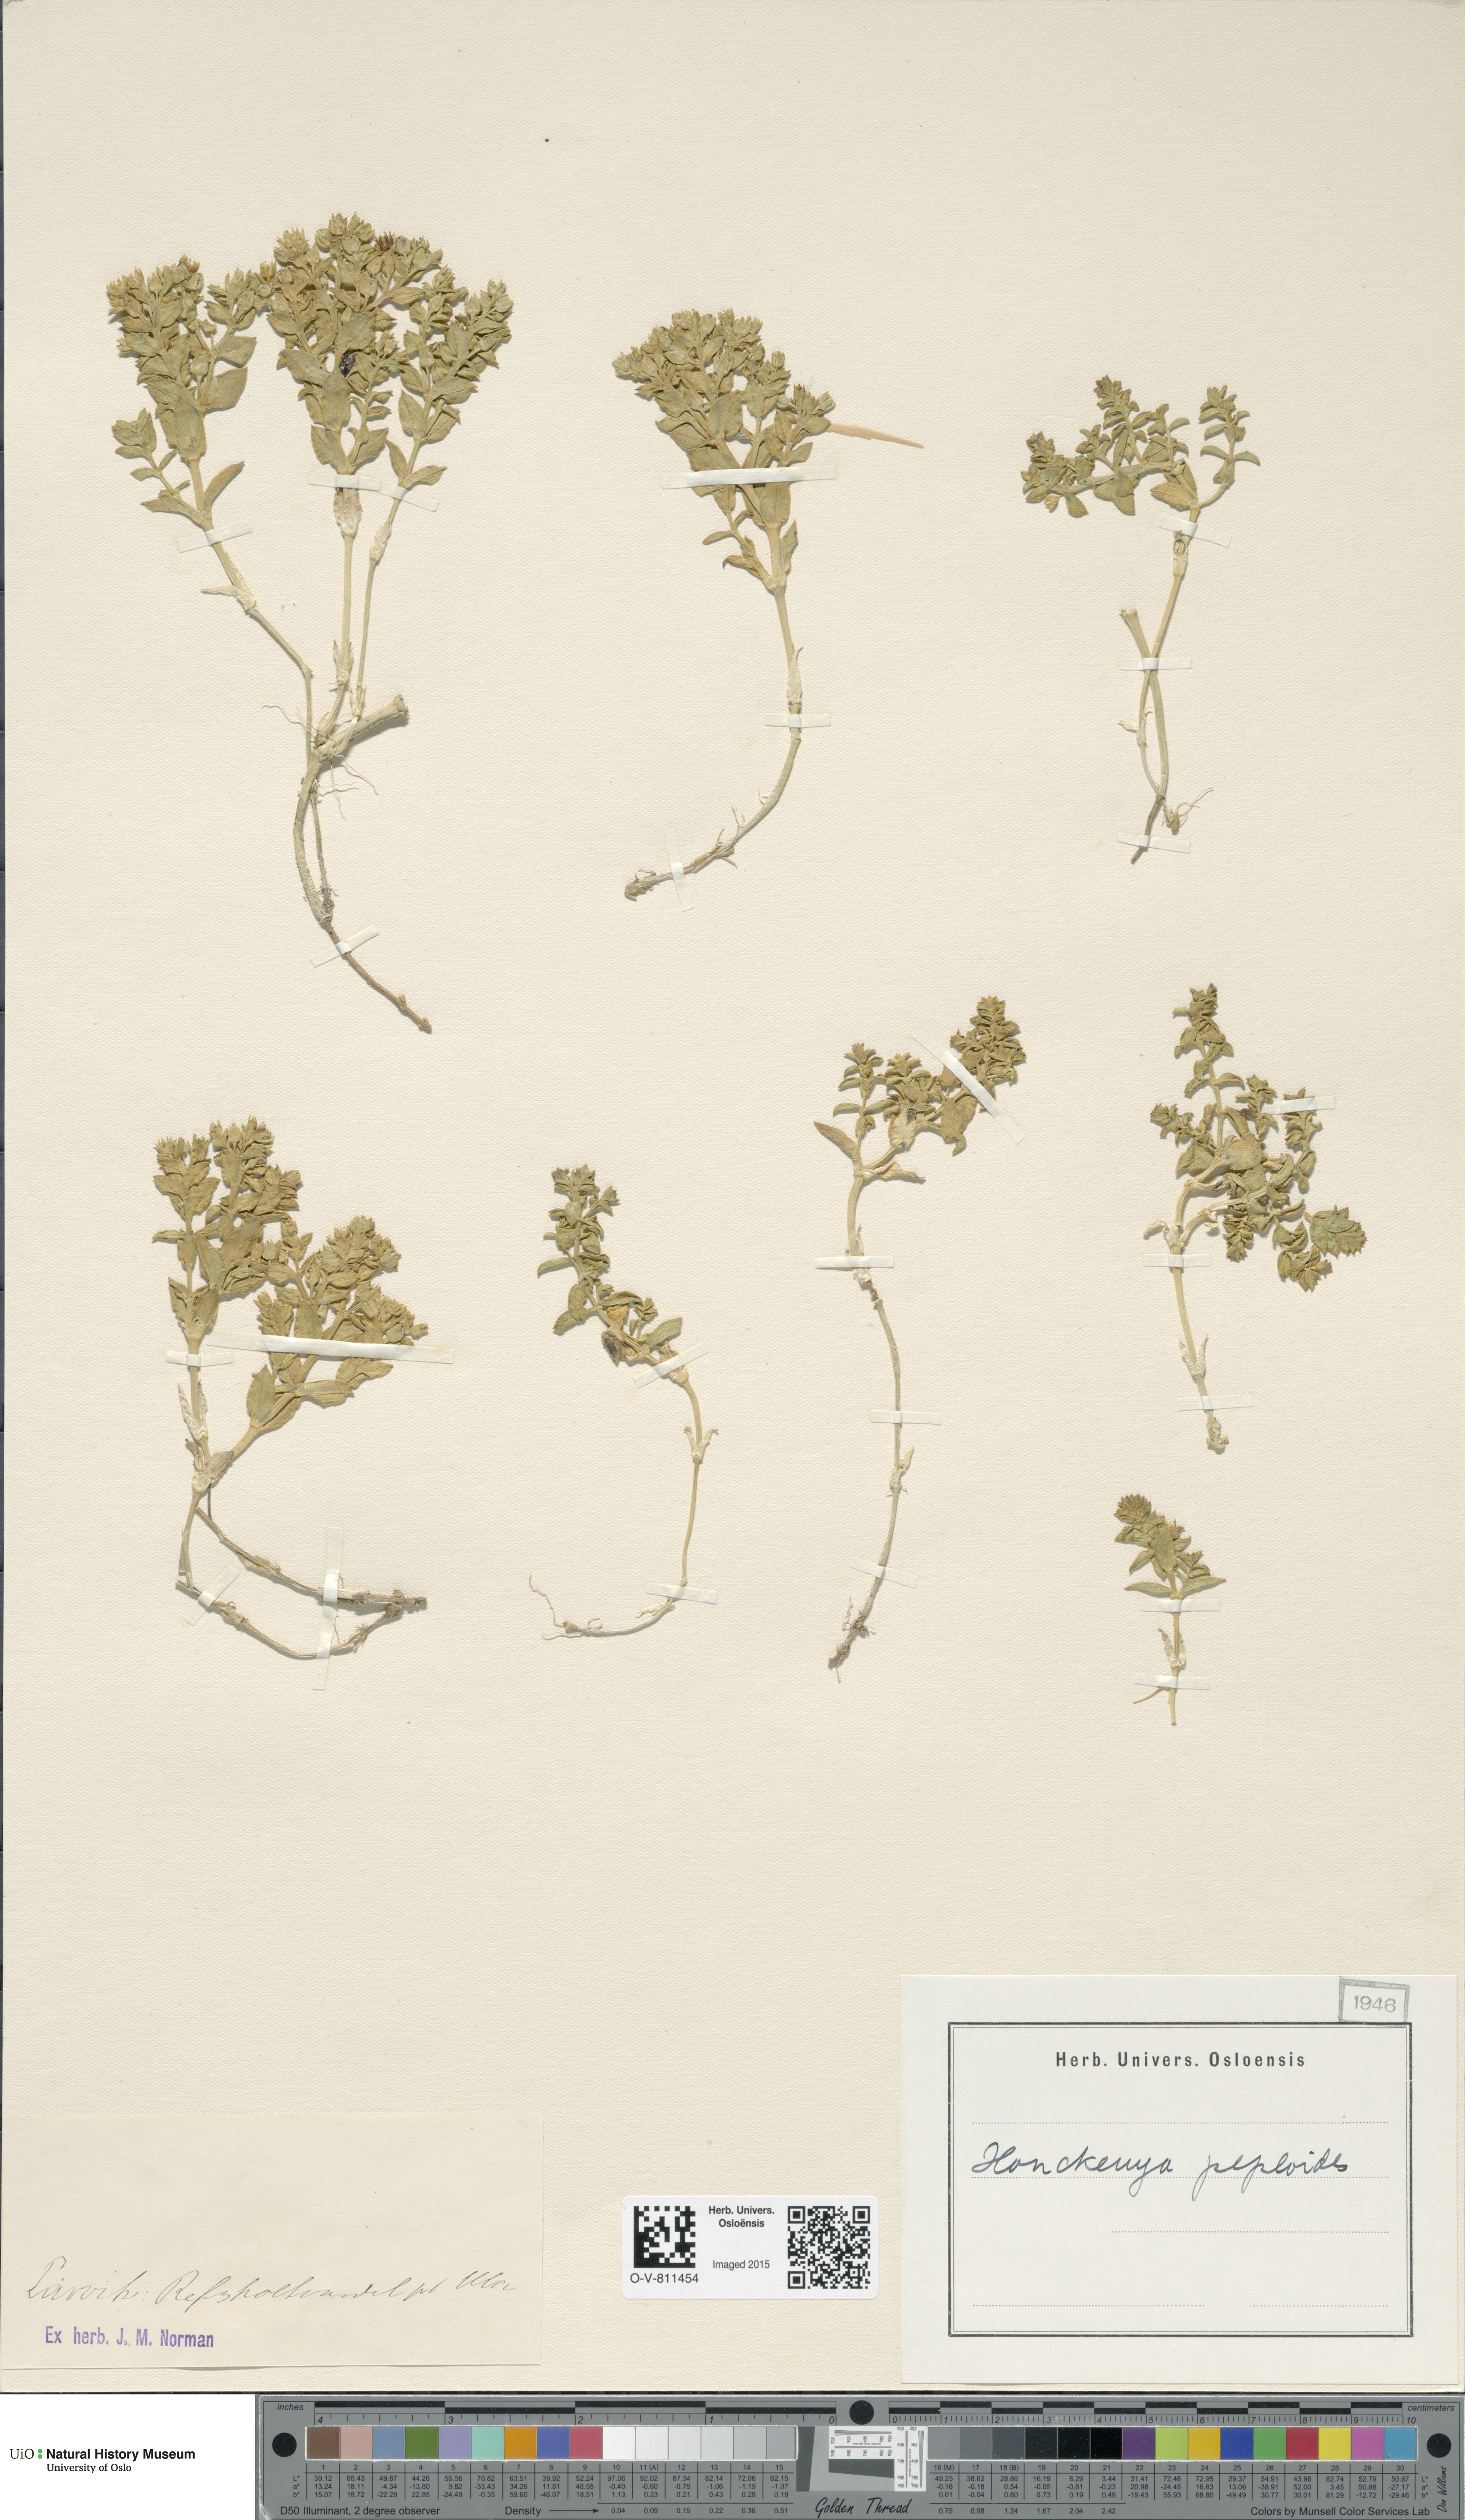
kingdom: Plantae
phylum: Tracheophyta
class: Magnoliopsida
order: Caryophyllales
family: Caryophyllaceae
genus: Honckenya
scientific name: Honckenya peploides
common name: Sea sandwort
